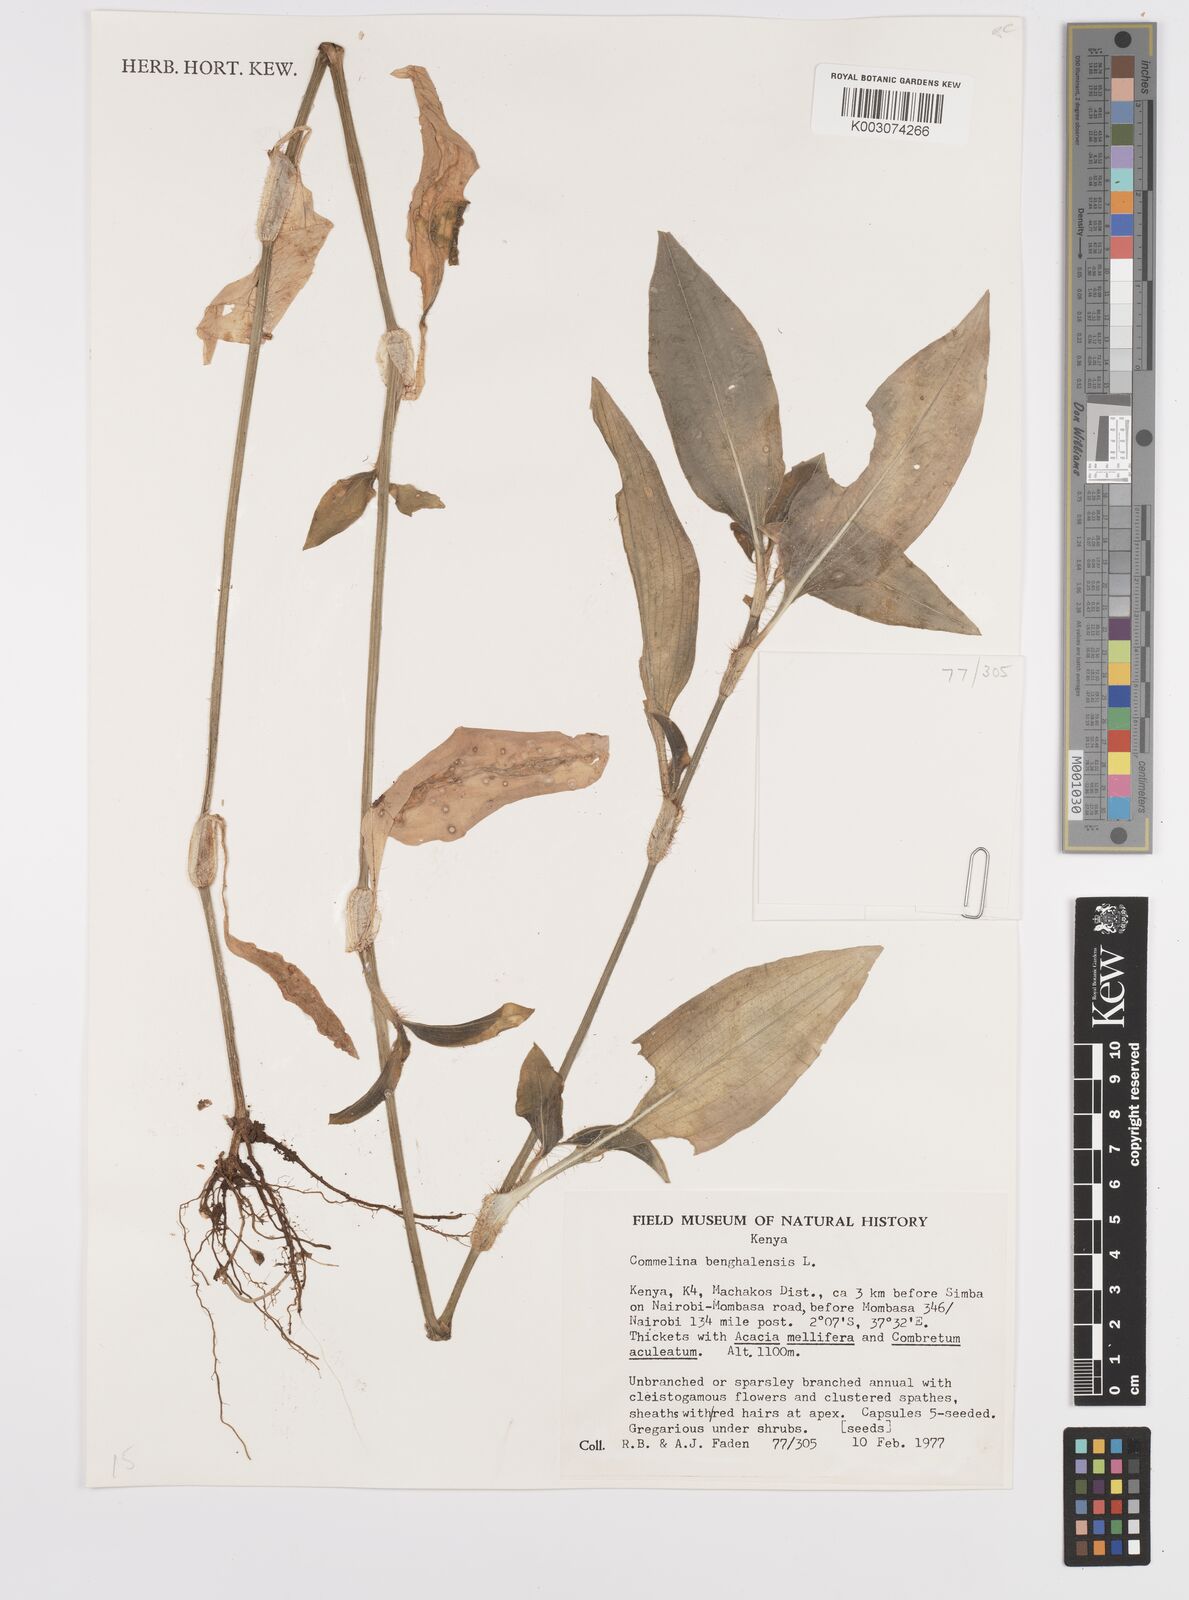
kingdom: Plantae
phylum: Tracheophyta
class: Liliopsida
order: Commelinales
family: Commelinaceae
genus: Commelina
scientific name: Commelina benghalensis
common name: Jio
